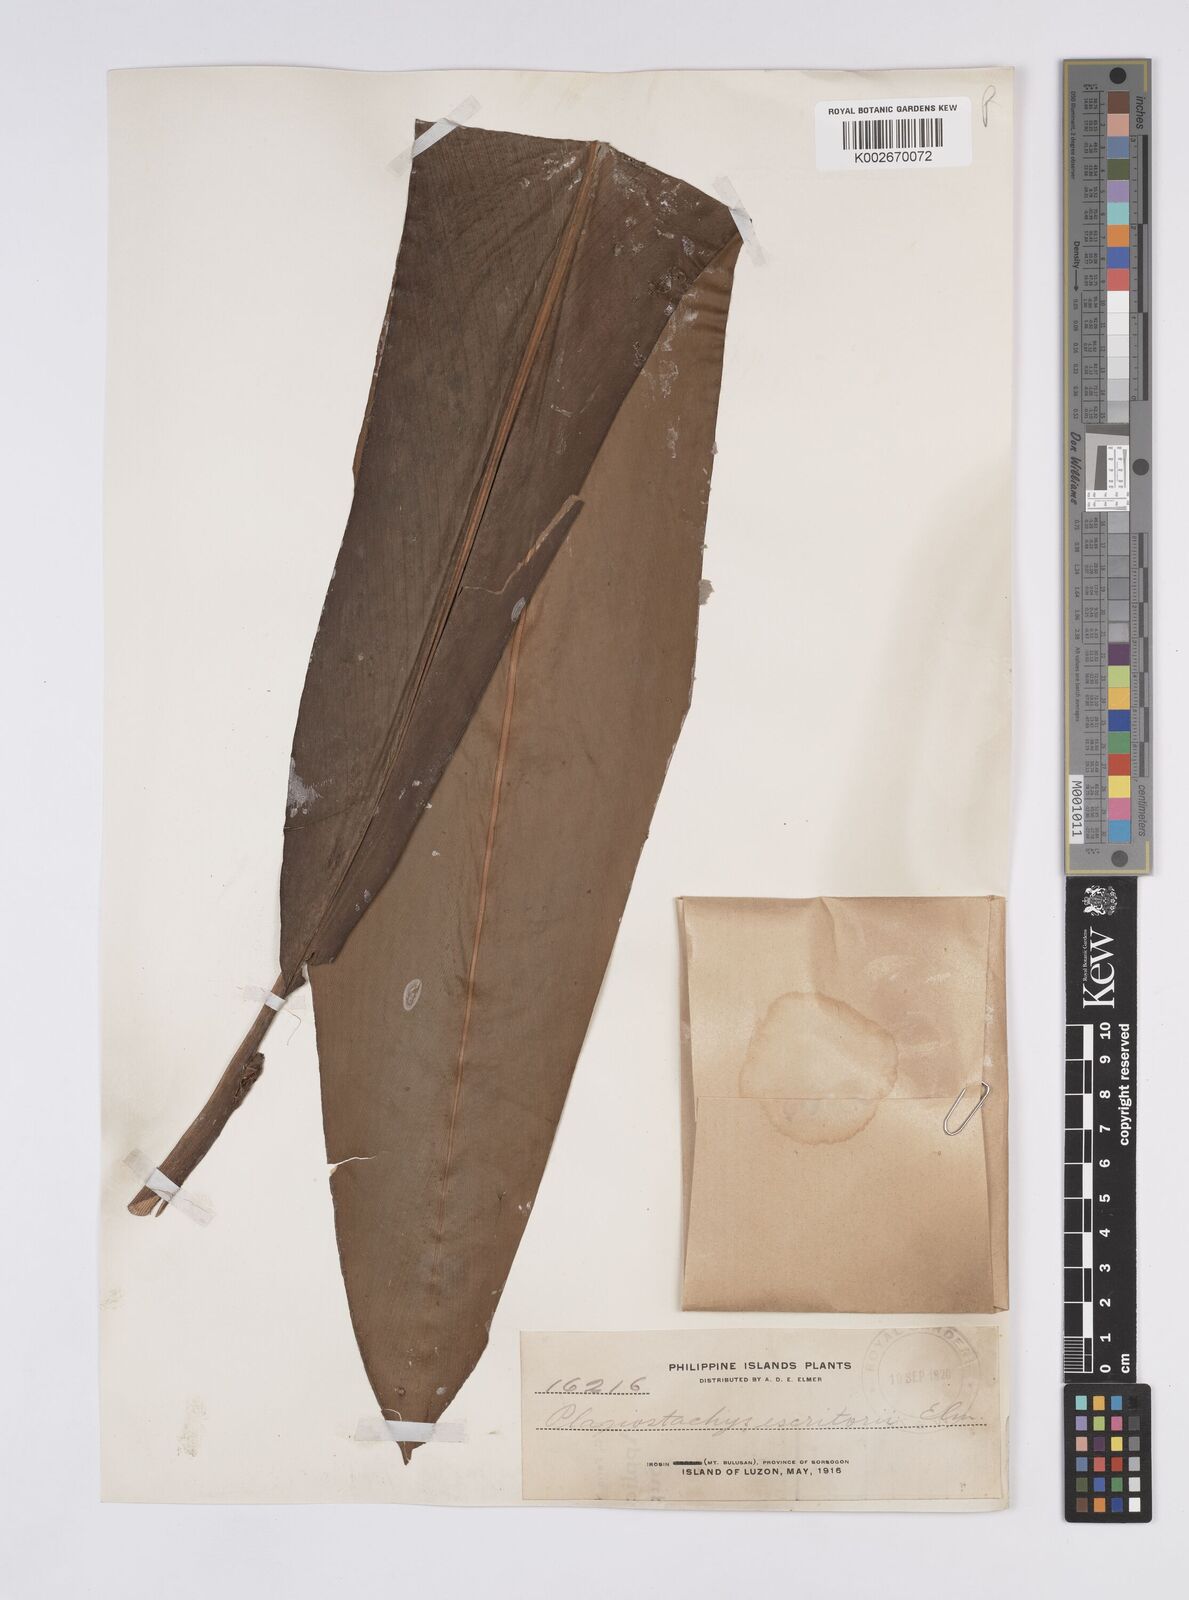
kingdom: Plantae
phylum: Tracheophyta
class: Liliopsida
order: Zingiberales
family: Zingiberaceae
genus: Plagiostachys
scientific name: Plagiostachys escritorii
